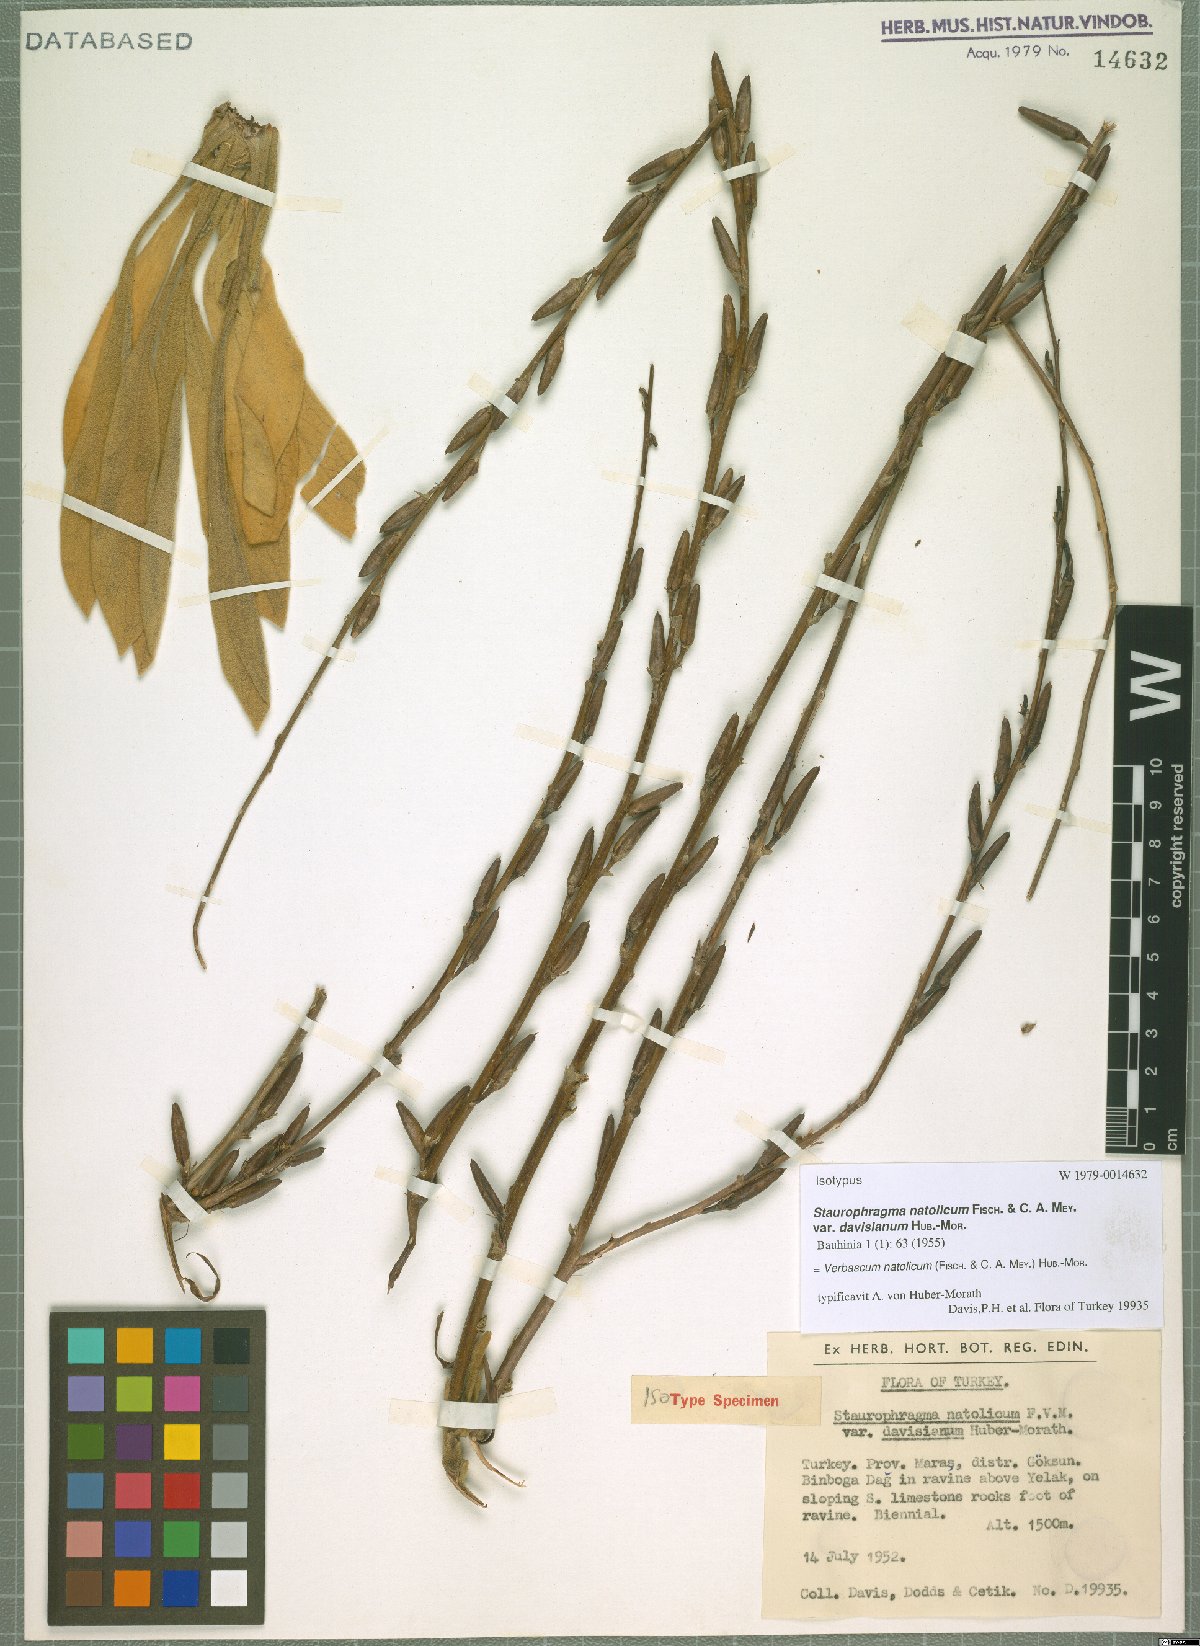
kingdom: Plantae
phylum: Tracheophyta
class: Magnoliopsida
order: Lamiales
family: Scrophulariaceae
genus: Verbascum
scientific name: Verbascum natolicum
